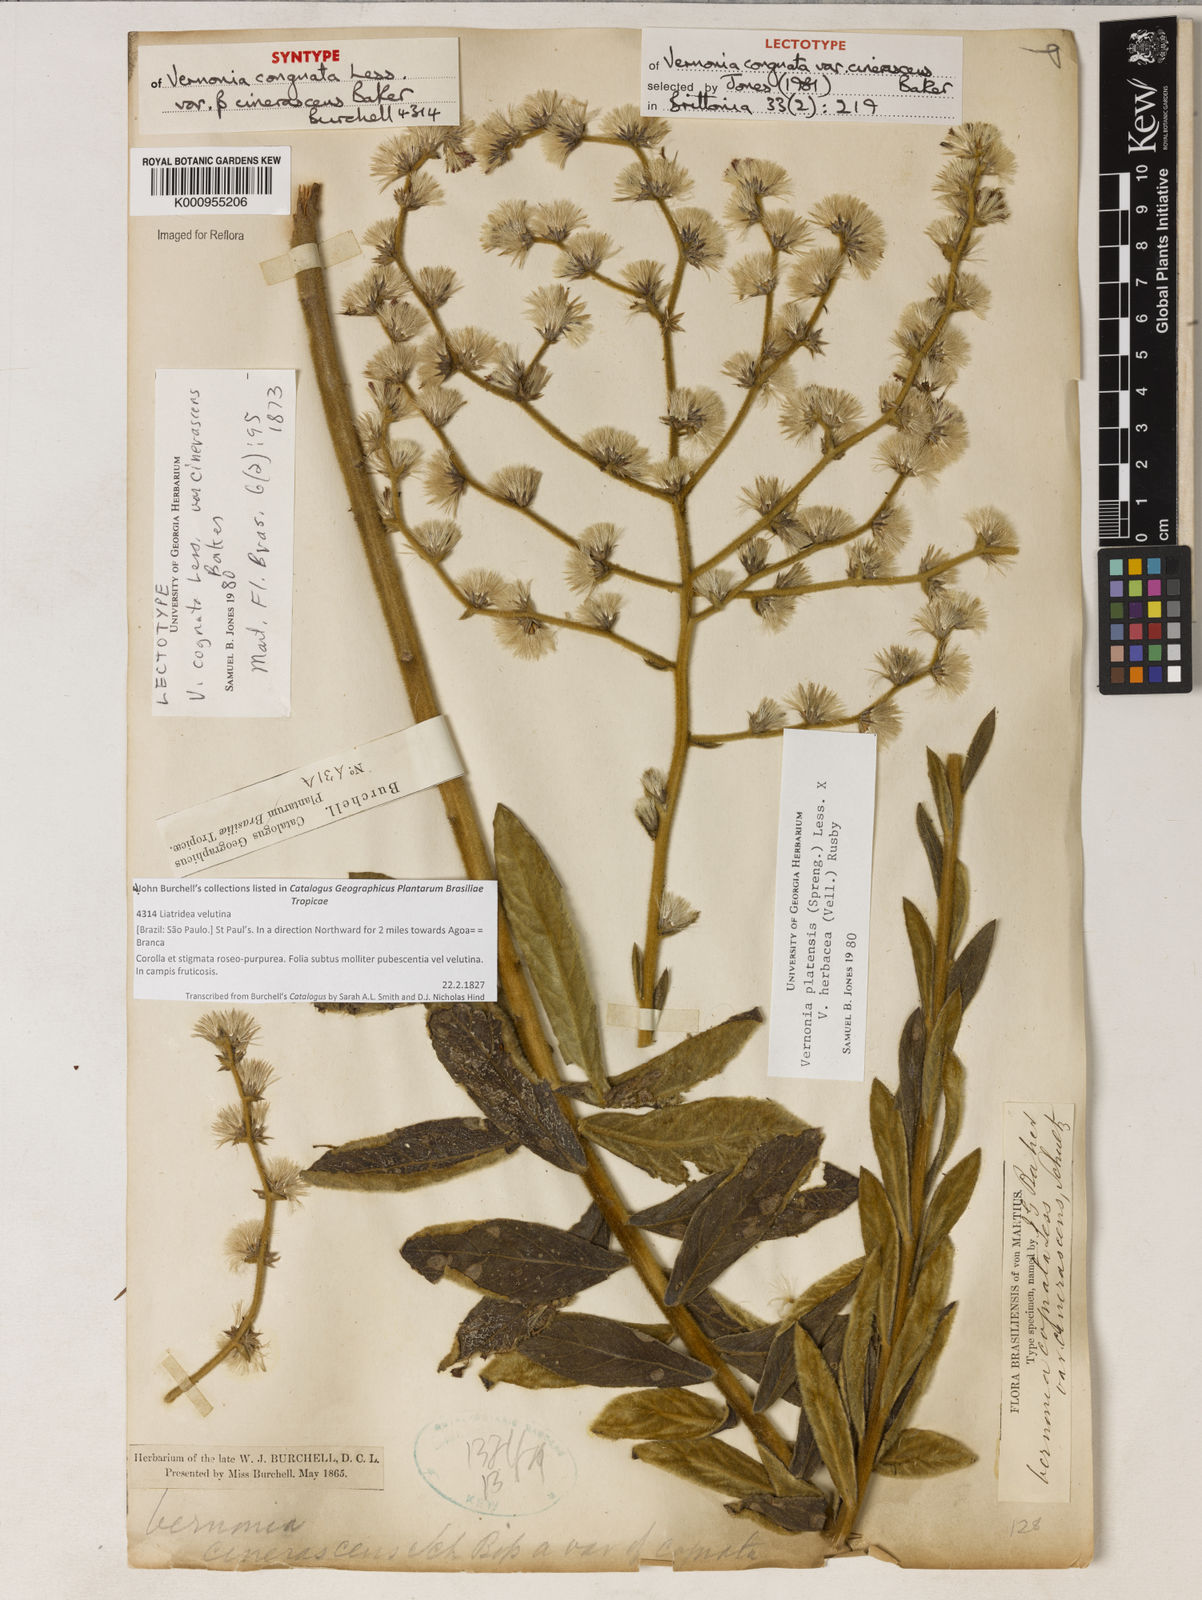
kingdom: Plantae
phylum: Tracheophyta
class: Magnoliopsida
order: Asterales
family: Asteraceae
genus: Chrysolaena
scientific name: Chrysolaena cognata
